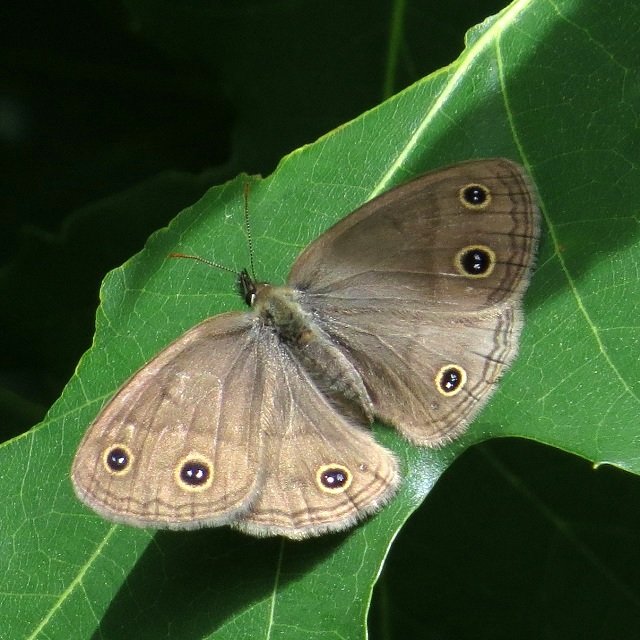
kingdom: Animalia
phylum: Arthropoda
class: Insecta
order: Lepidoptera
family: Nymphalidae
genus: Euptychia
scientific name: Euptychia cymela
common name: Little Wood Satyr
